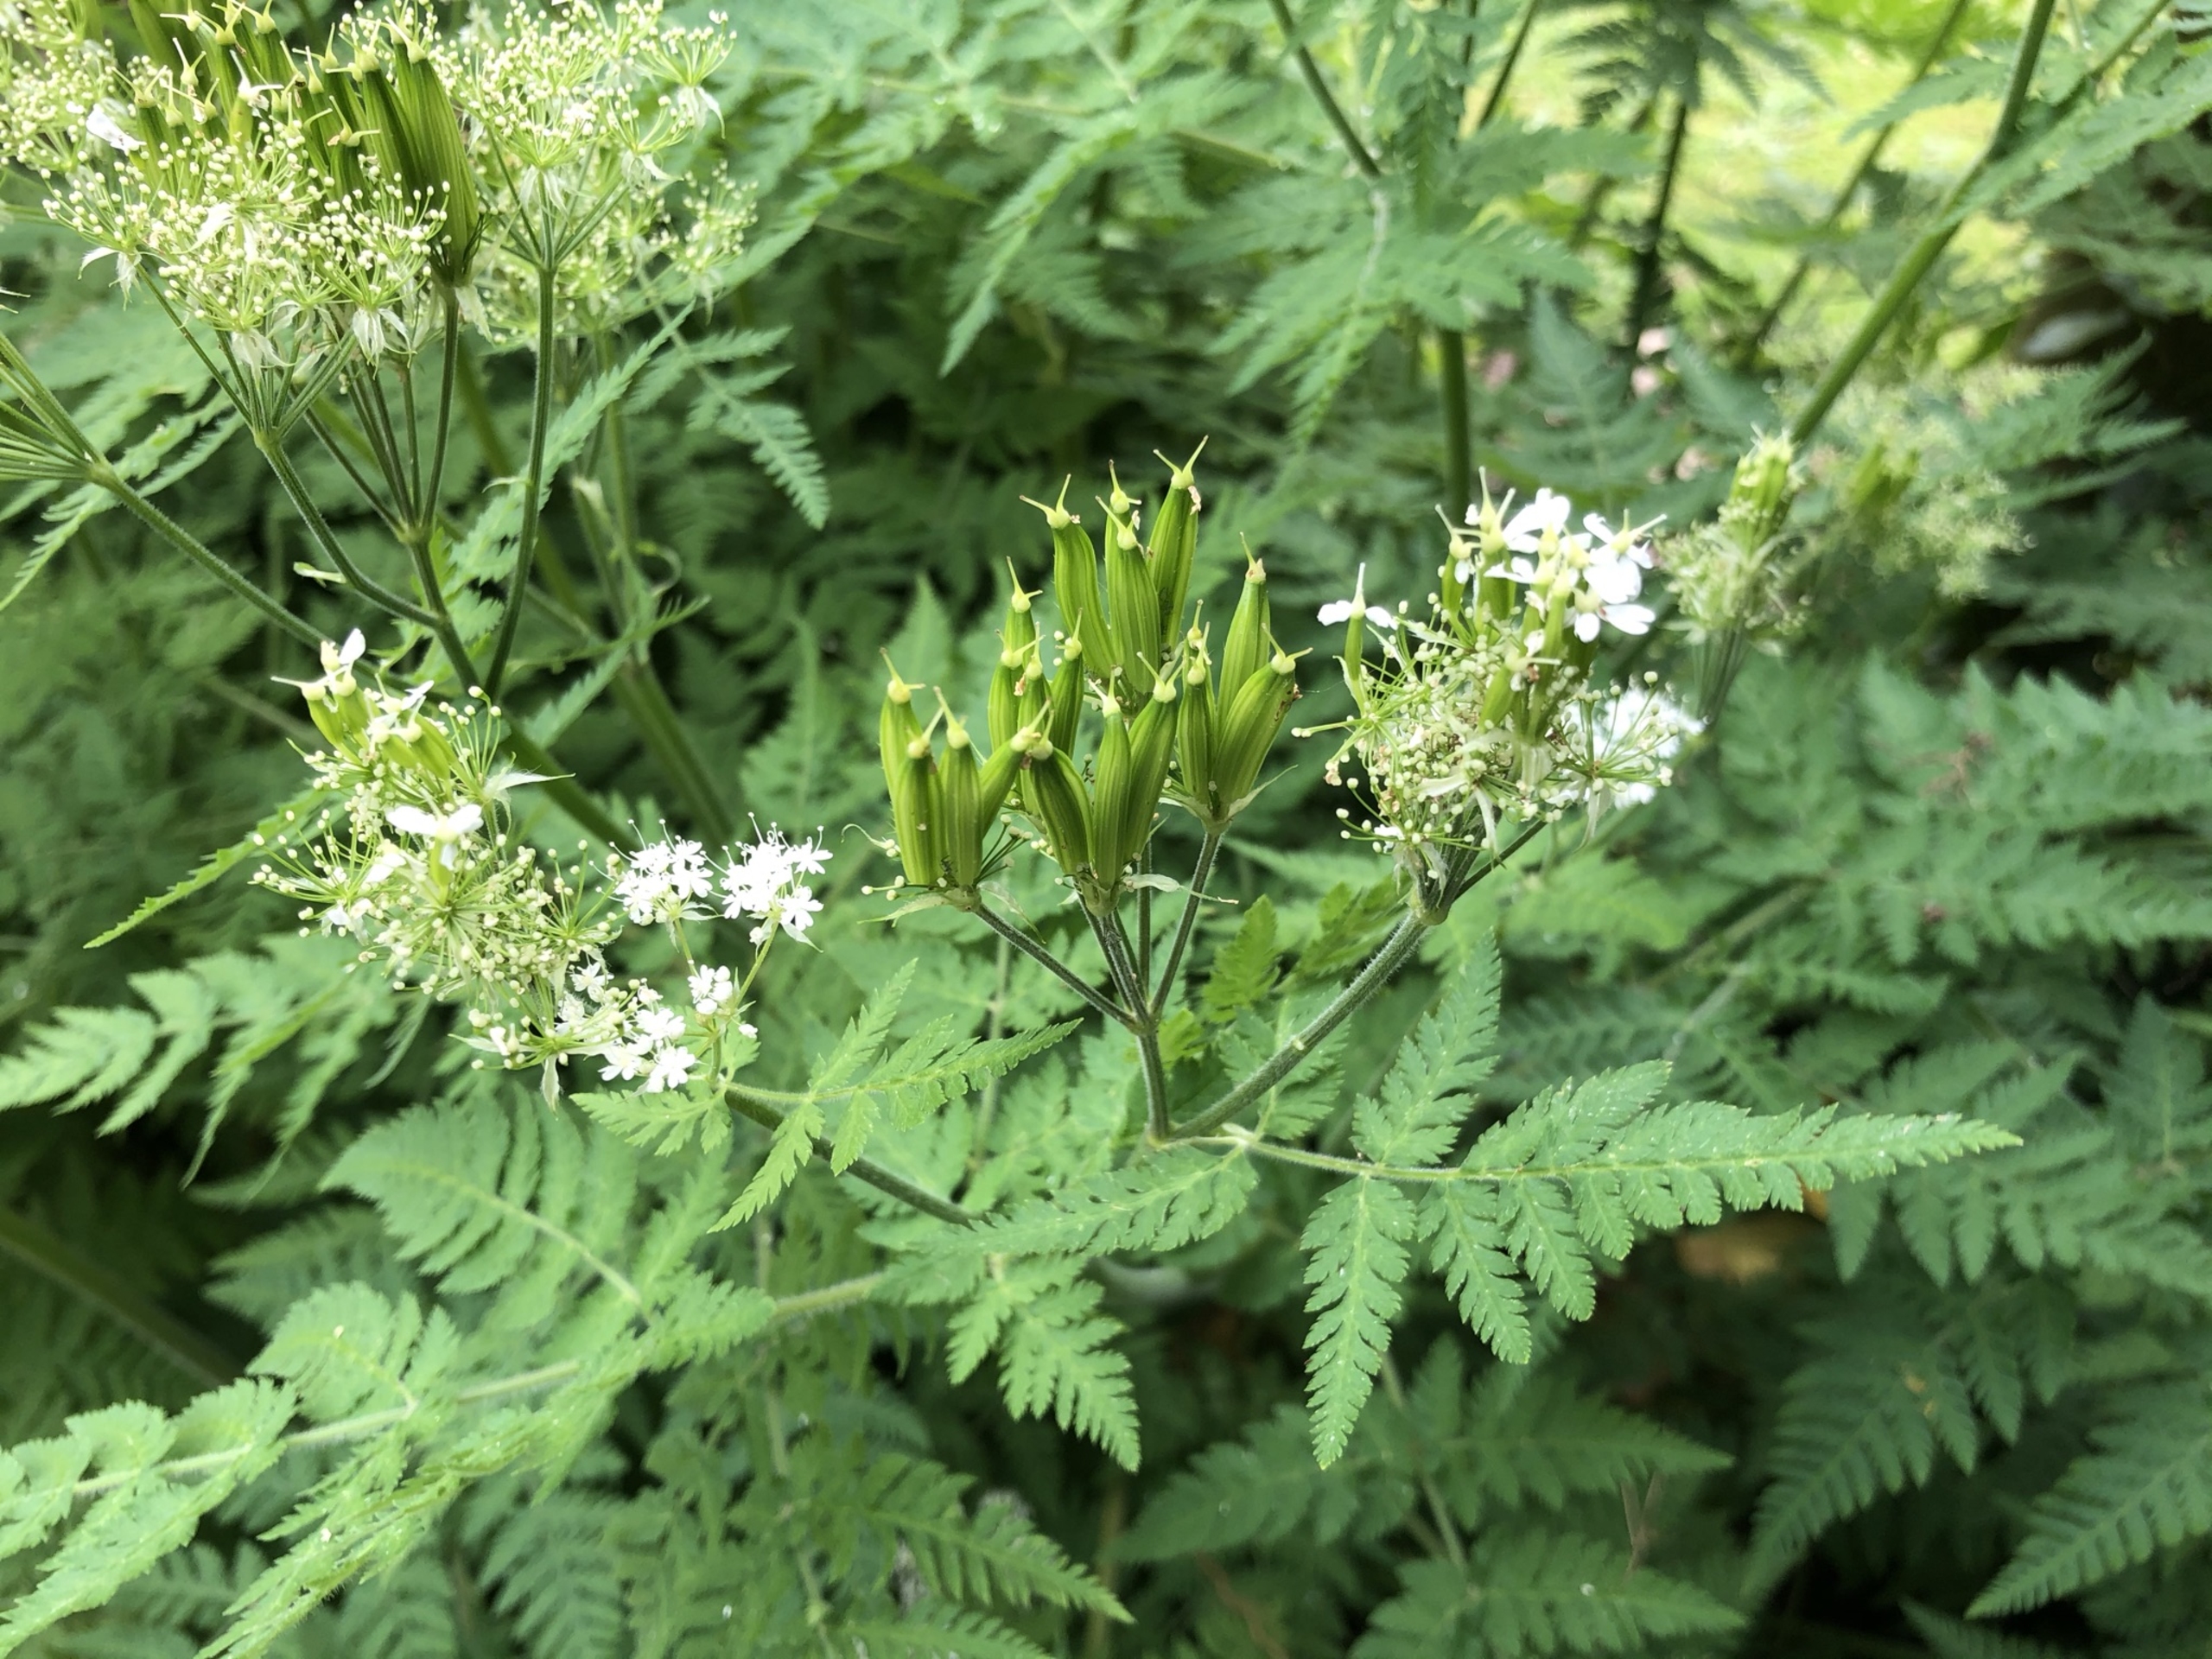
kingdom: Plantae
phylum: Tracheophyta
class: Magnoliopsida
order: Apiales
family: Apiaceae
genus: Myrrhis
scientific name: Myrrhis odorata
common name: Sødskærm
